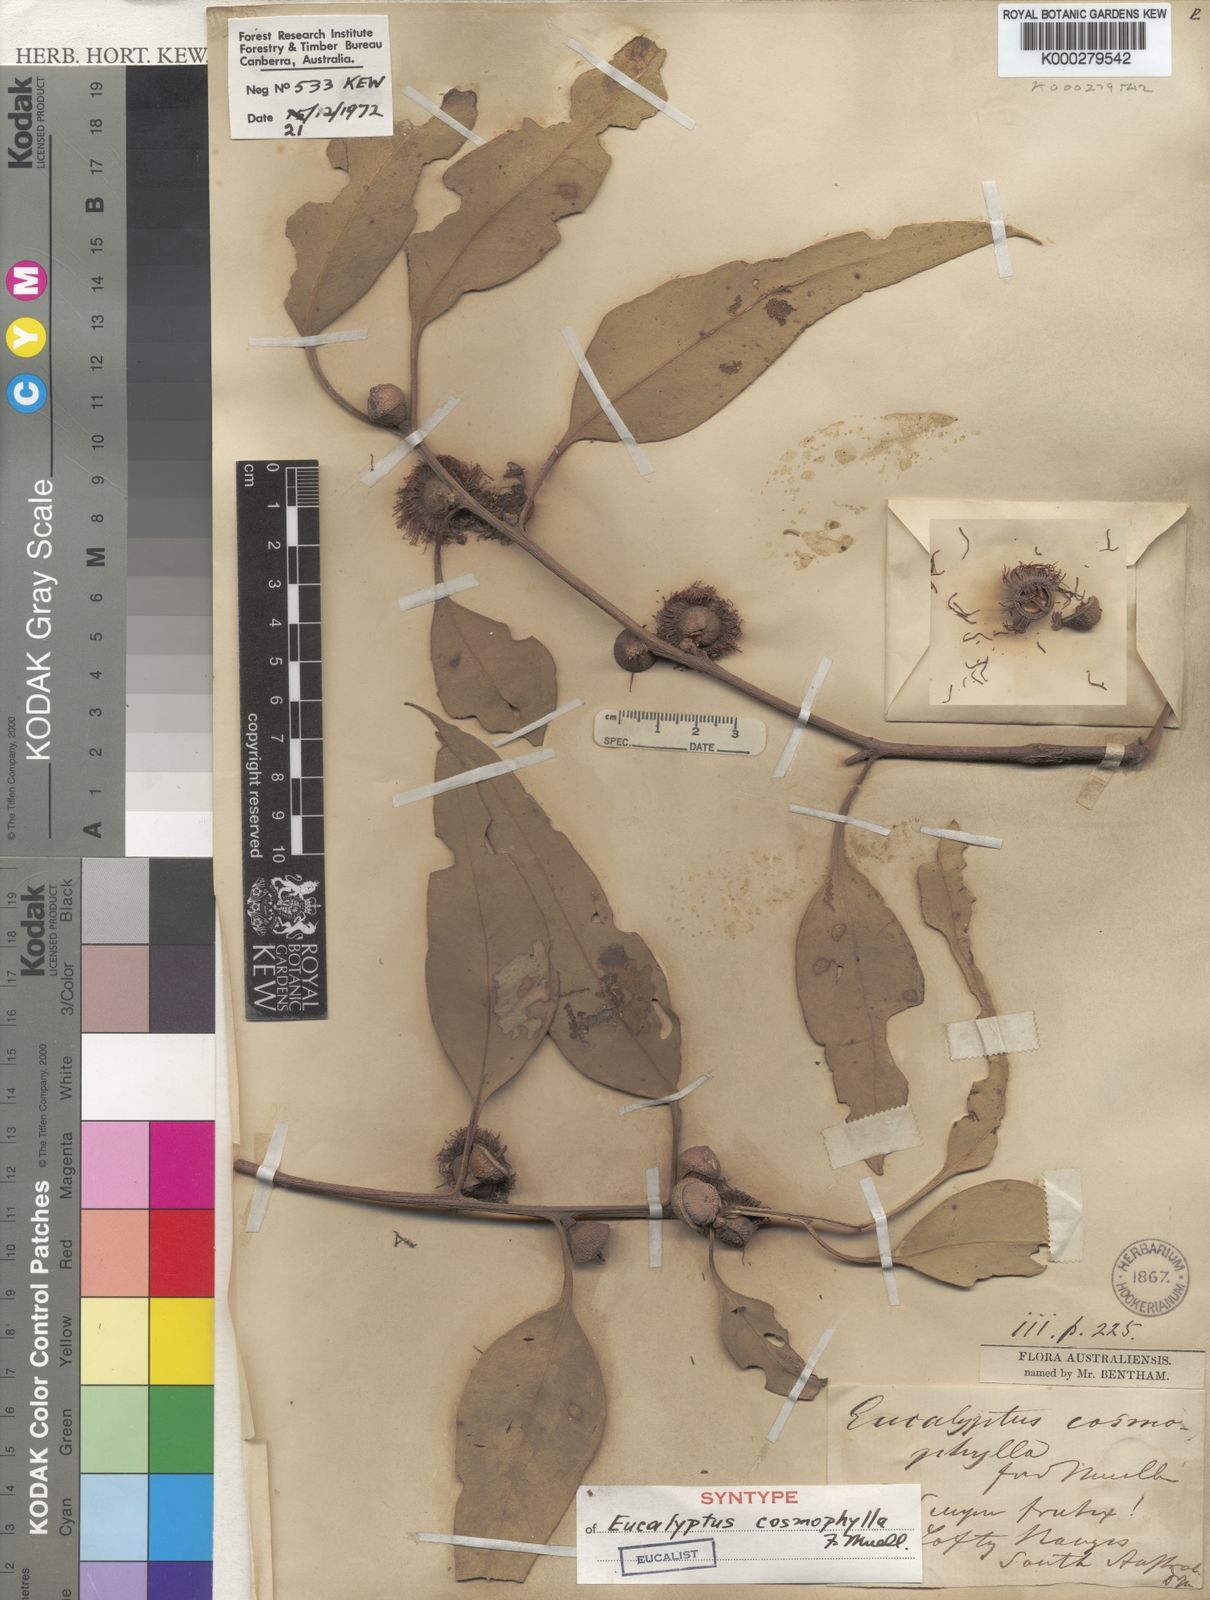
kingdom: Plantae
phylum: Tracheophyta
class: Magnoliopsida
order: Myrtales
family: Myrtaceae
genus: Eucalyptus
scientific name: Eucalyptus cosmophylla
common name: Bog-gum
